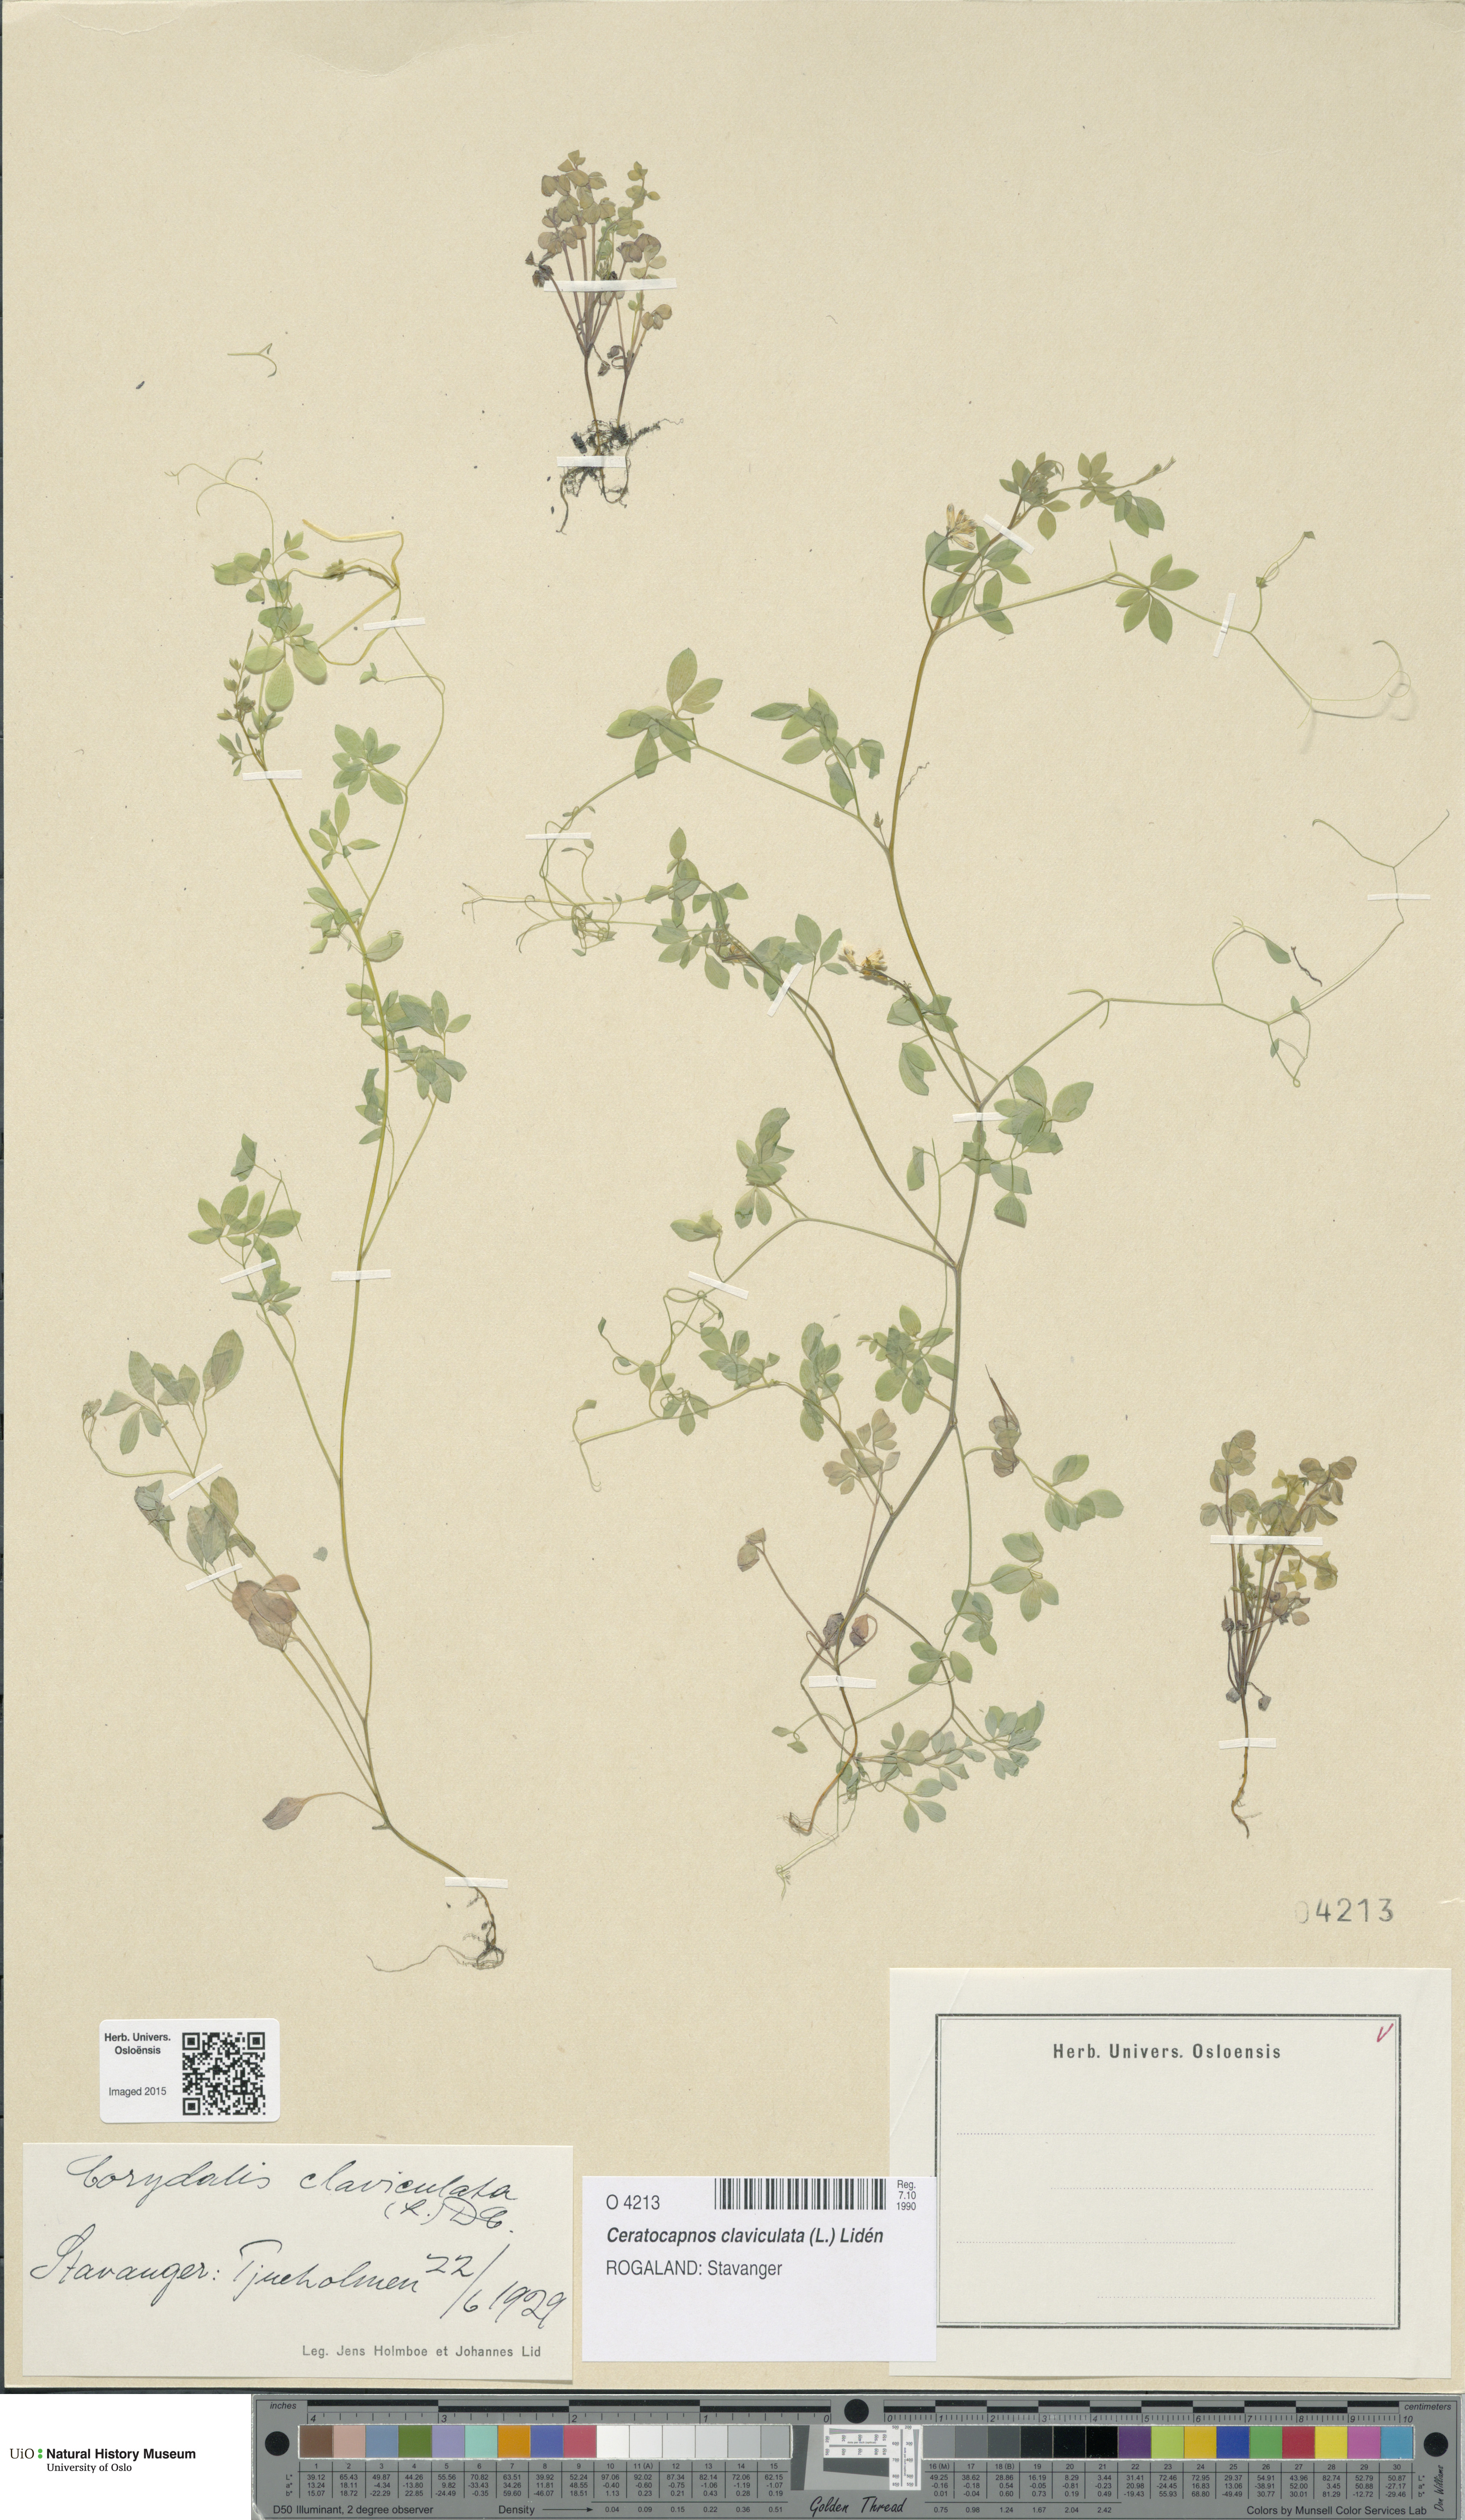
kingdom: Plantae
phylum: Tracheophyta
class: Magnoliopsida
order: Ranunculales
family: Papaveraceae
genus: Ceratocapnos
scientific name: Ceratocapnos claviculata
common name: Climbing corydalis
